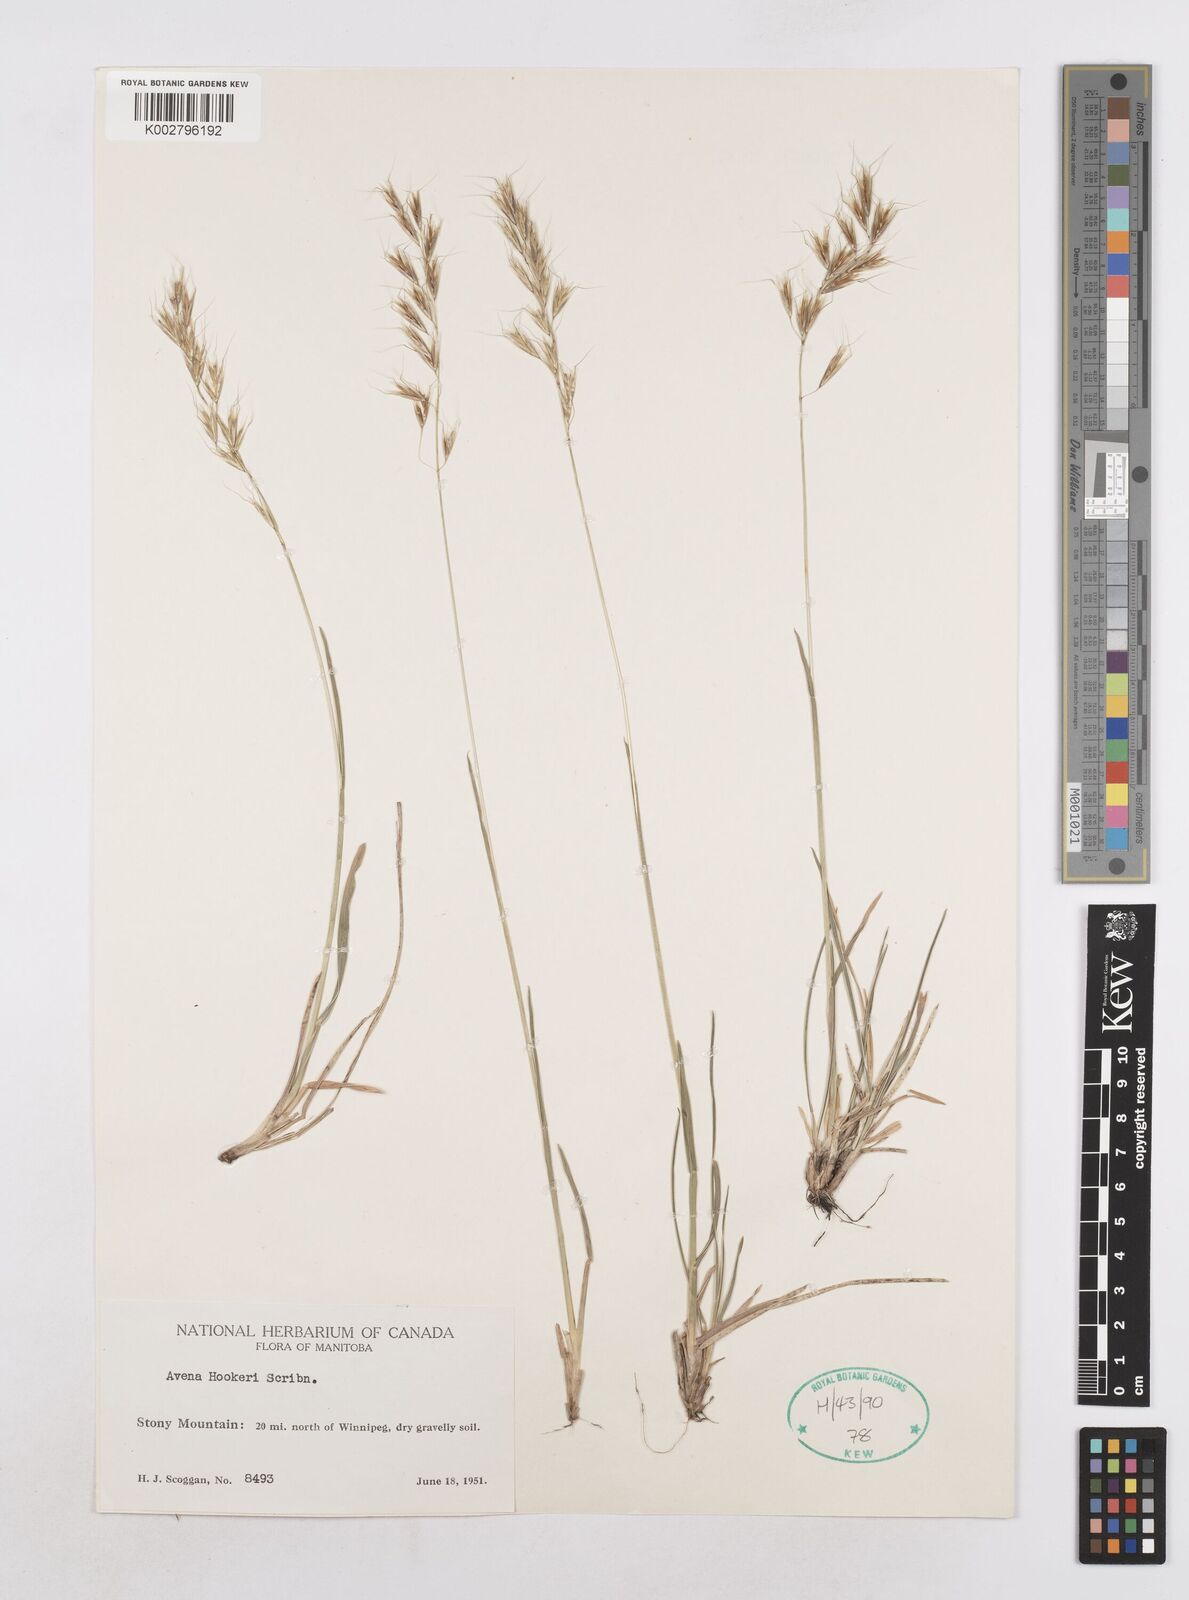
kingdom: Plantae
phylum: Tracheophyta
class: Liliopsida
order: Poales
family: Poaceae
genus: Helictochloa
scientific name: Helictochloa hookeri
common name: Hooker's alpine oatgrass
